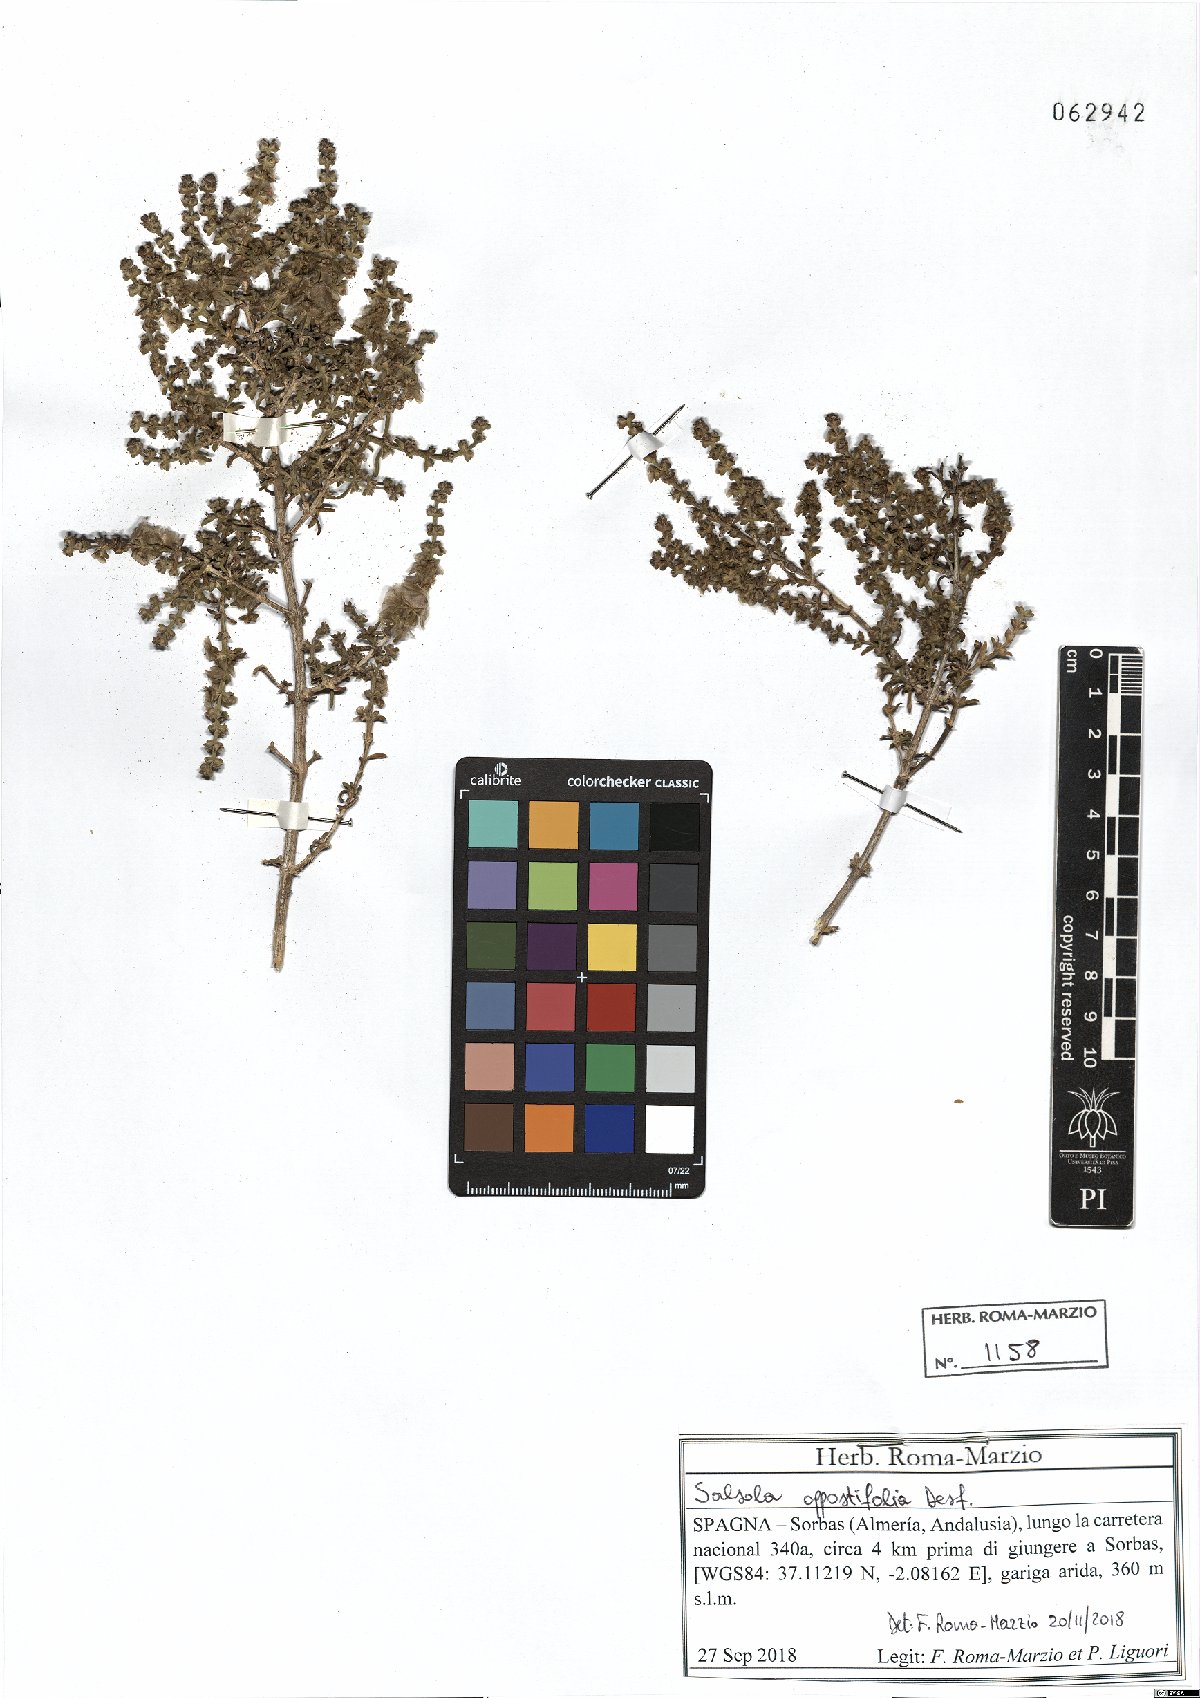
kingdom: Plantae
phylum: Tracheophyta
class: Magnoliopsida
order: Caryophyllales
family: Amaranthaceae
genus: Soda
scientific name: Soda oppositifolia
